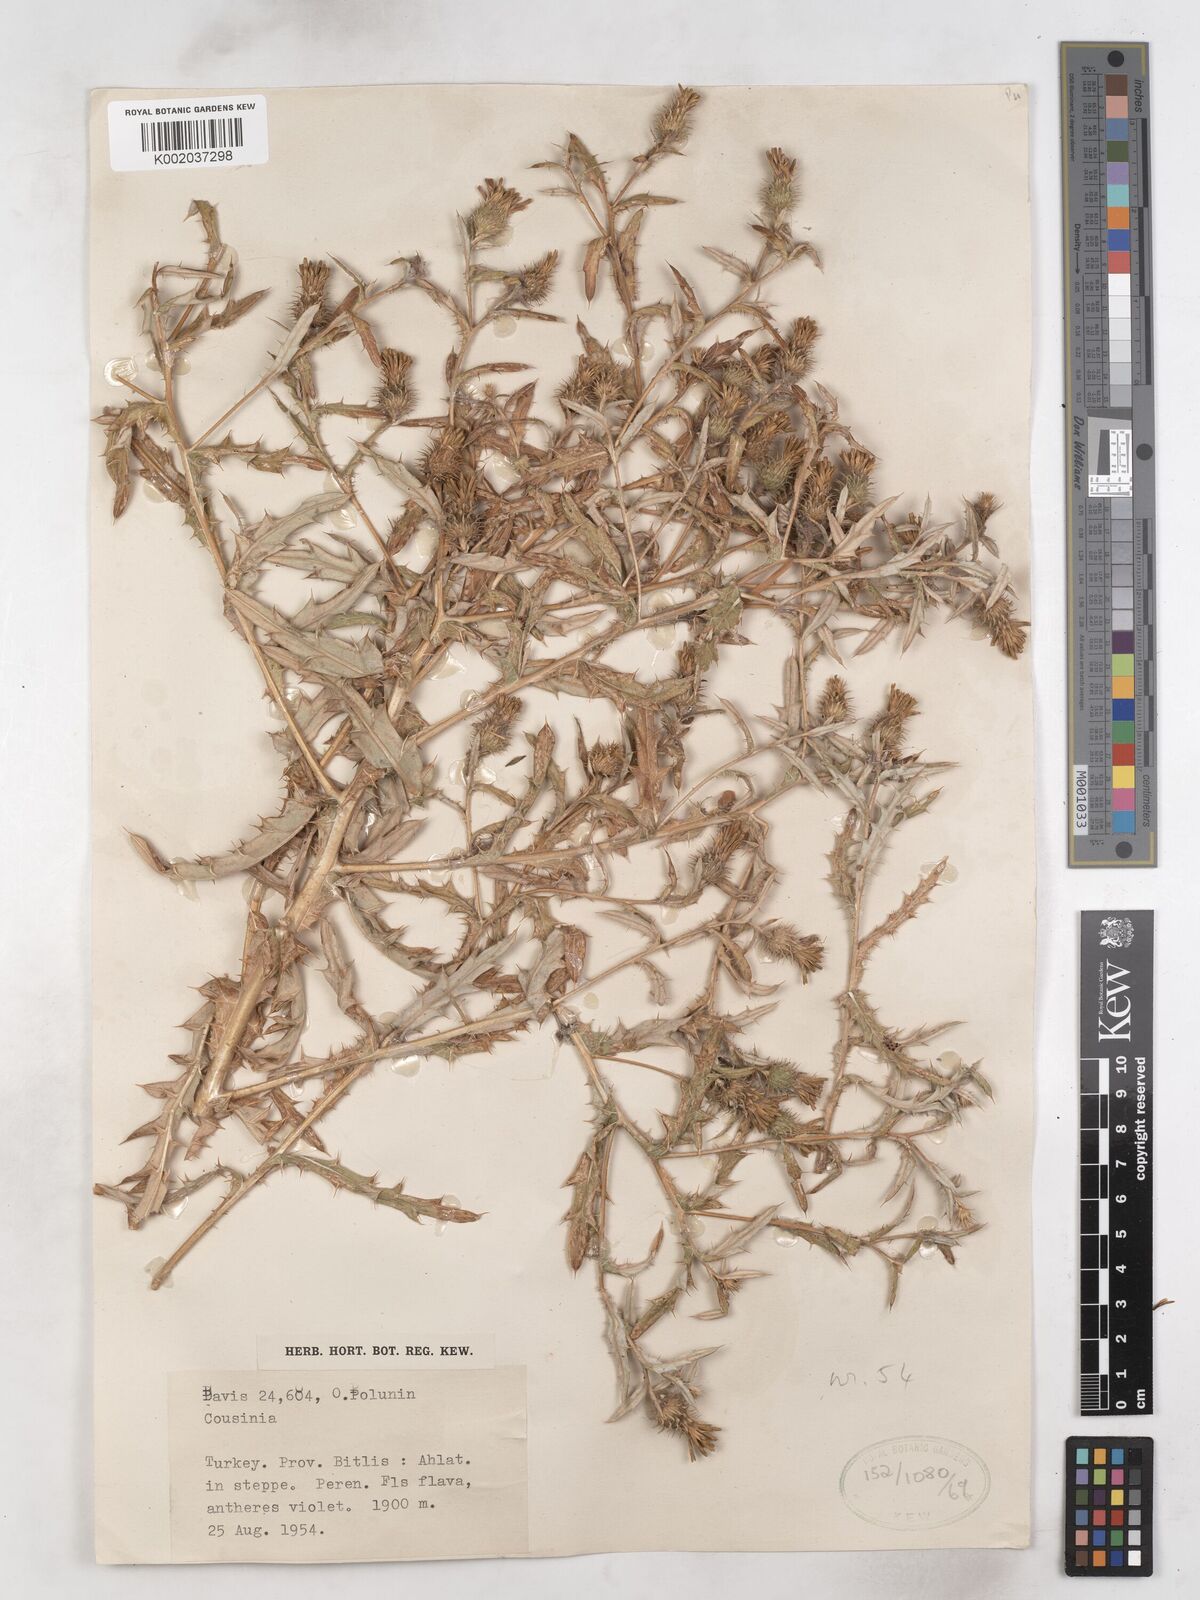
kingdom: Plantae
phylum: Tracheophyta
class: Magnoliopsida
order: Asterales
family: Asteraceae
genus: Cousinia
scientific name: Cousinia urumiensis
